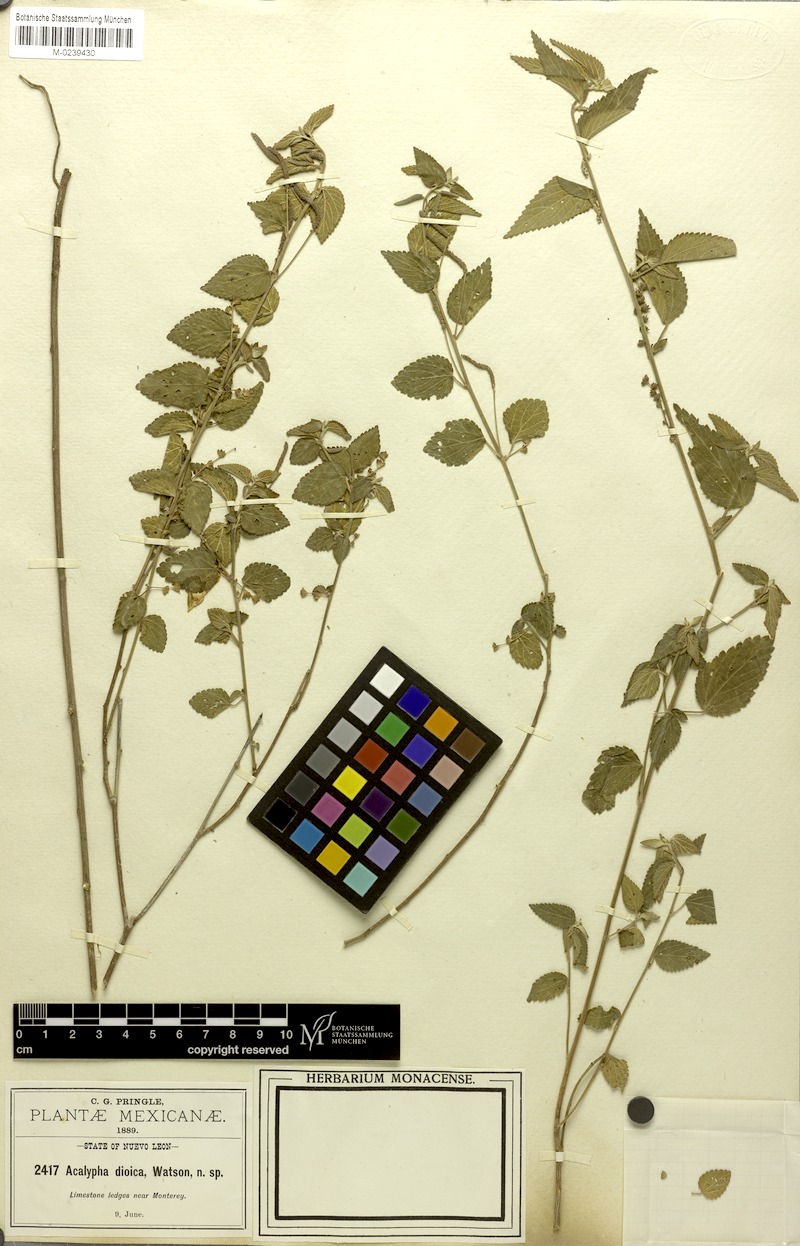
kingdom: Plantae
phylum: Tracheophyta
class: Magnoliopsida
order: Malpighiales
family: Euphorbiaceae
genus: Acalypha
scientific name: Acalypha dioica
